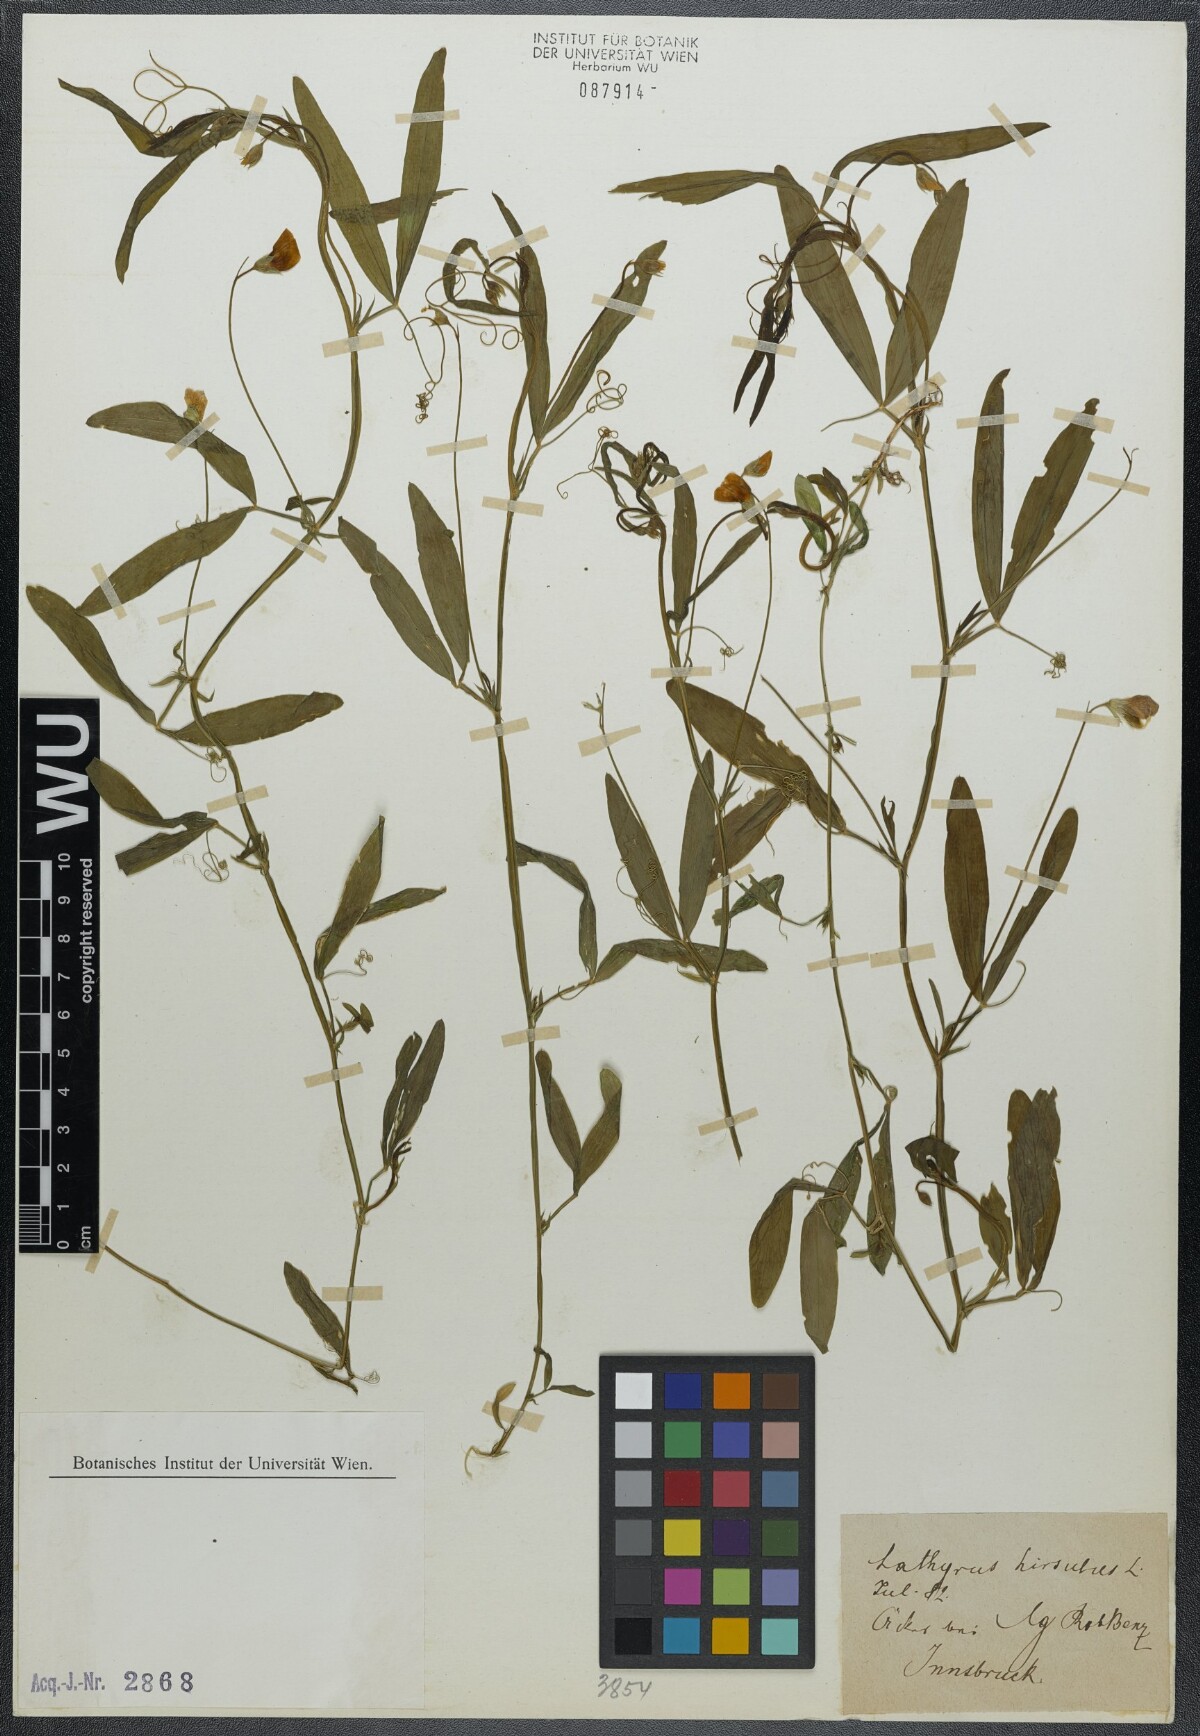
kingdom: Plantae
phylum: Tracheophyta
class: Magnoliopsida
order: Fabales
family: Fabaceae
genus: Lathyrus
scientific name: Lathyrus hirsutus
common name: Hairy vetchling
